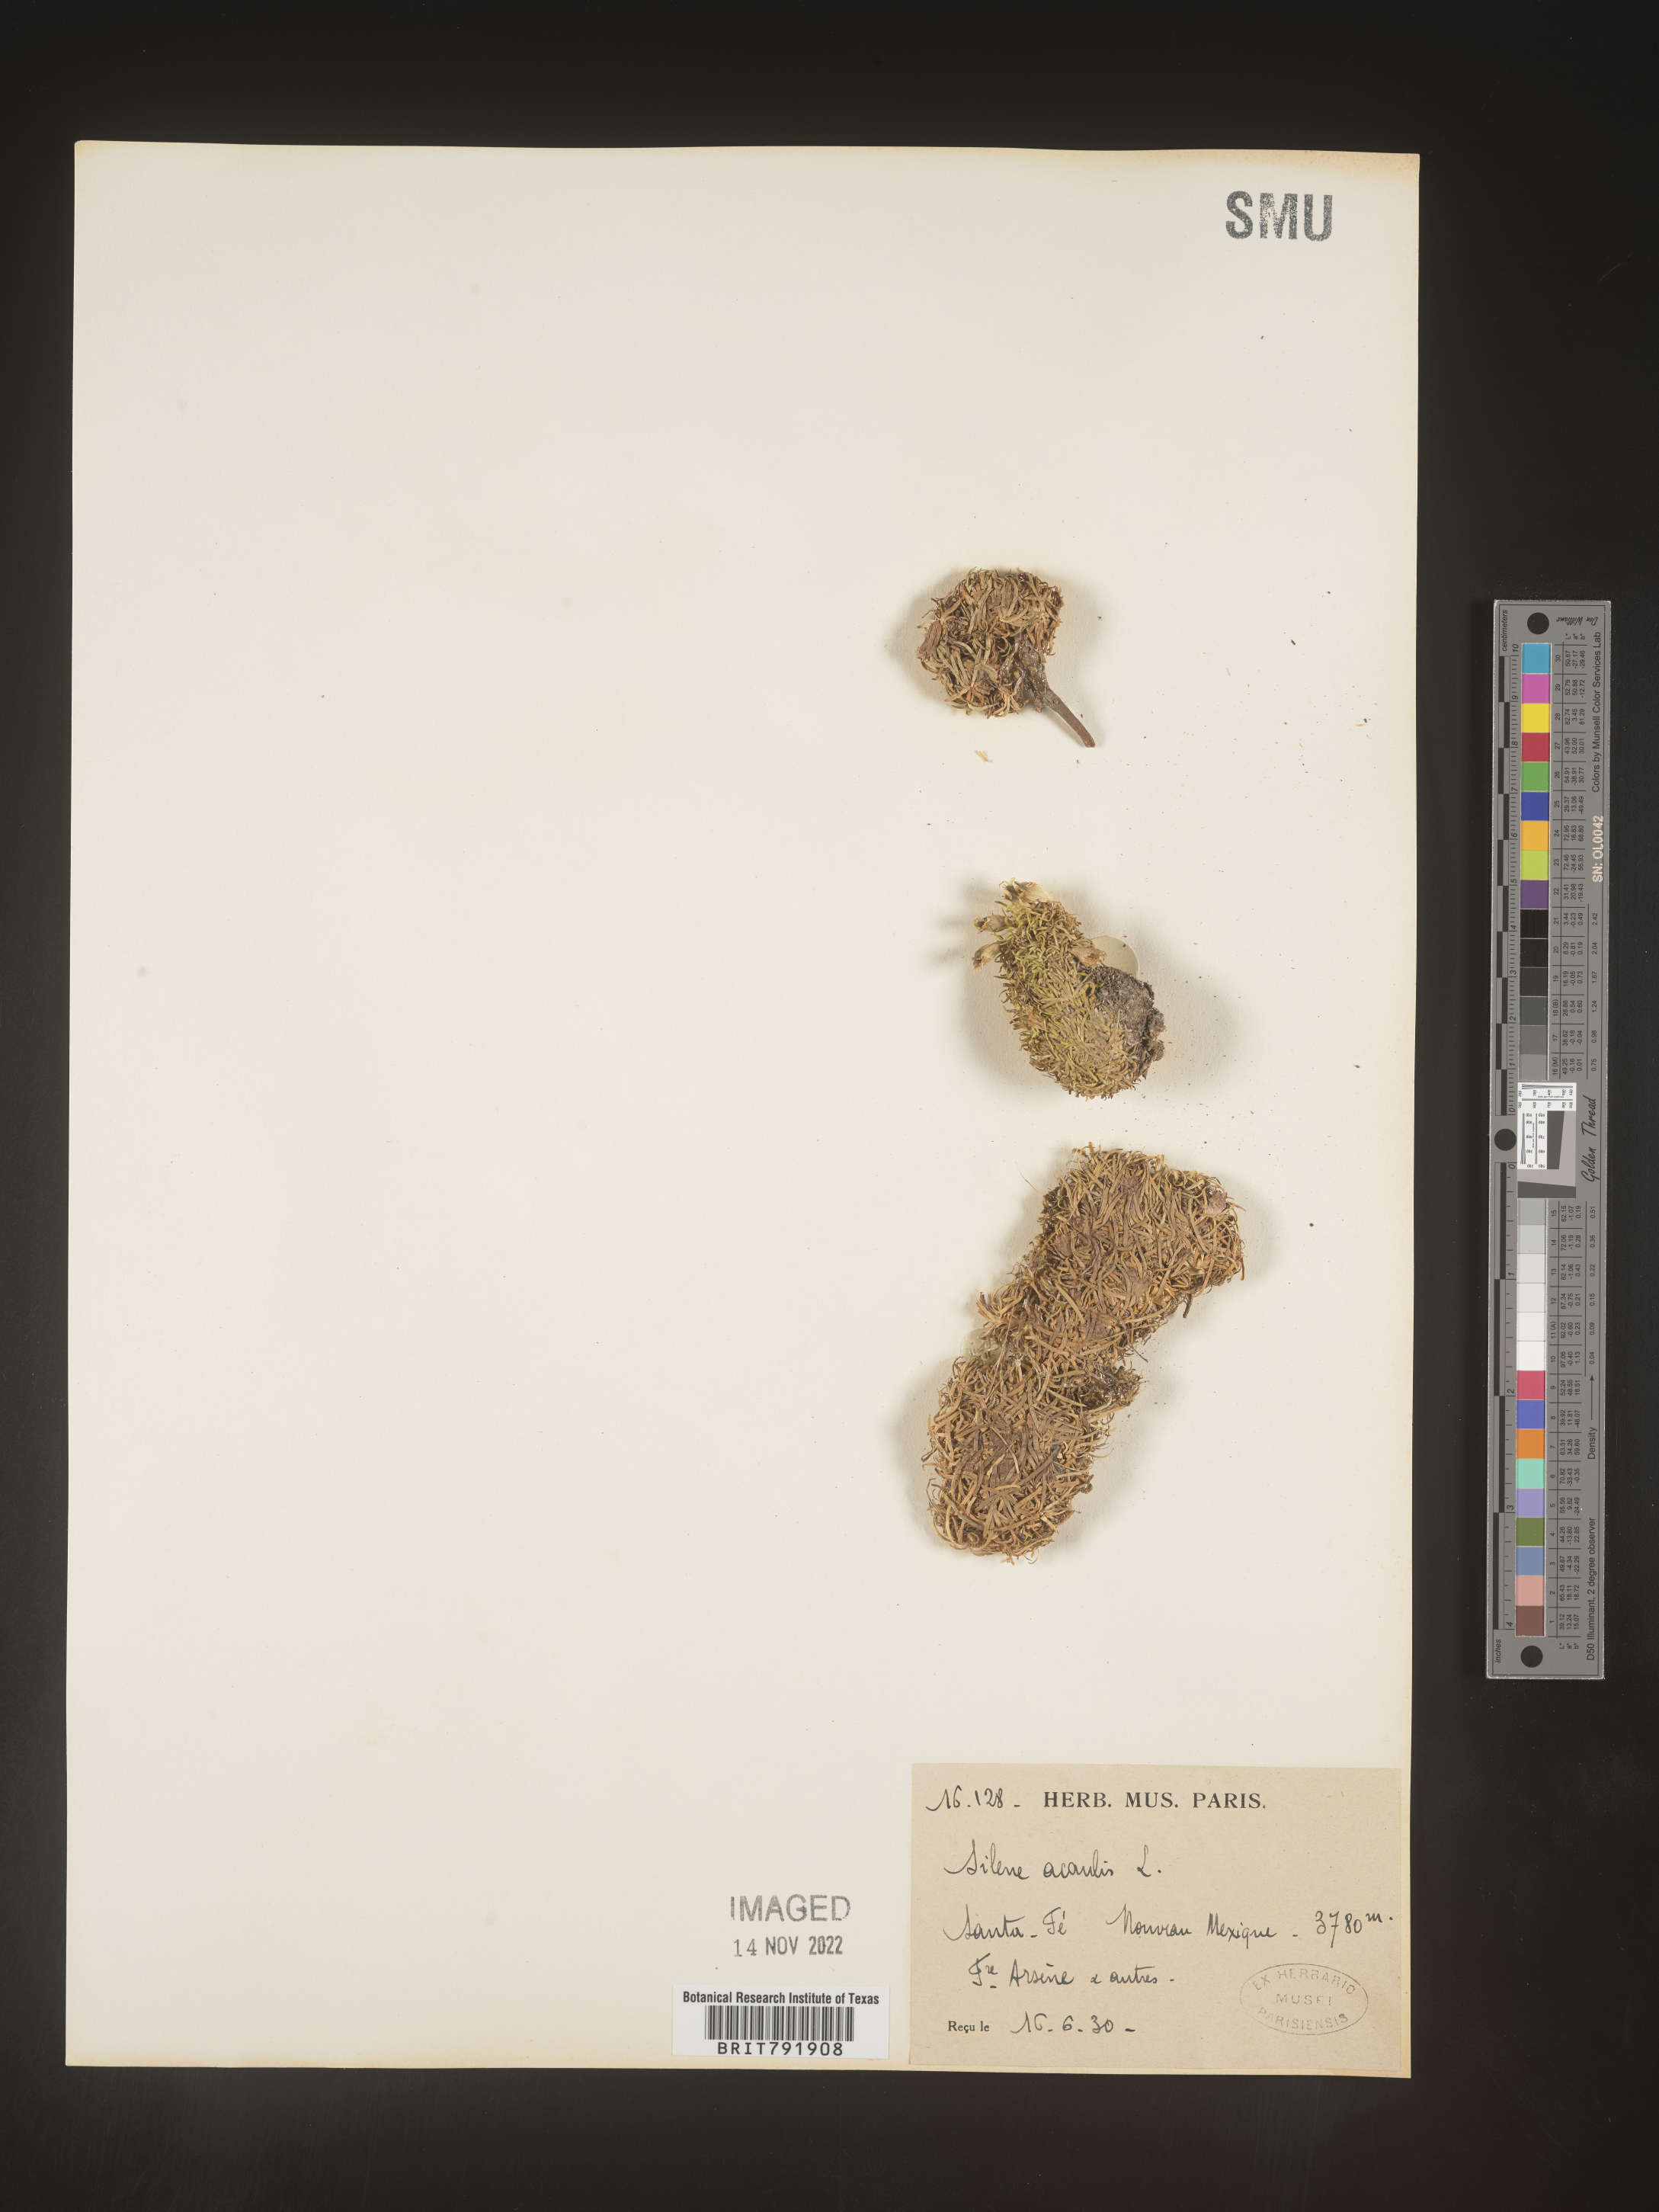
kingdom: Plantae
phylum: Tracheophyta
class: Magnoliopsida
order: Caryophyllales
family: Caryophyllaceae
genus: Silene
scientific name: Silene acaulis
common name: Moss campion
